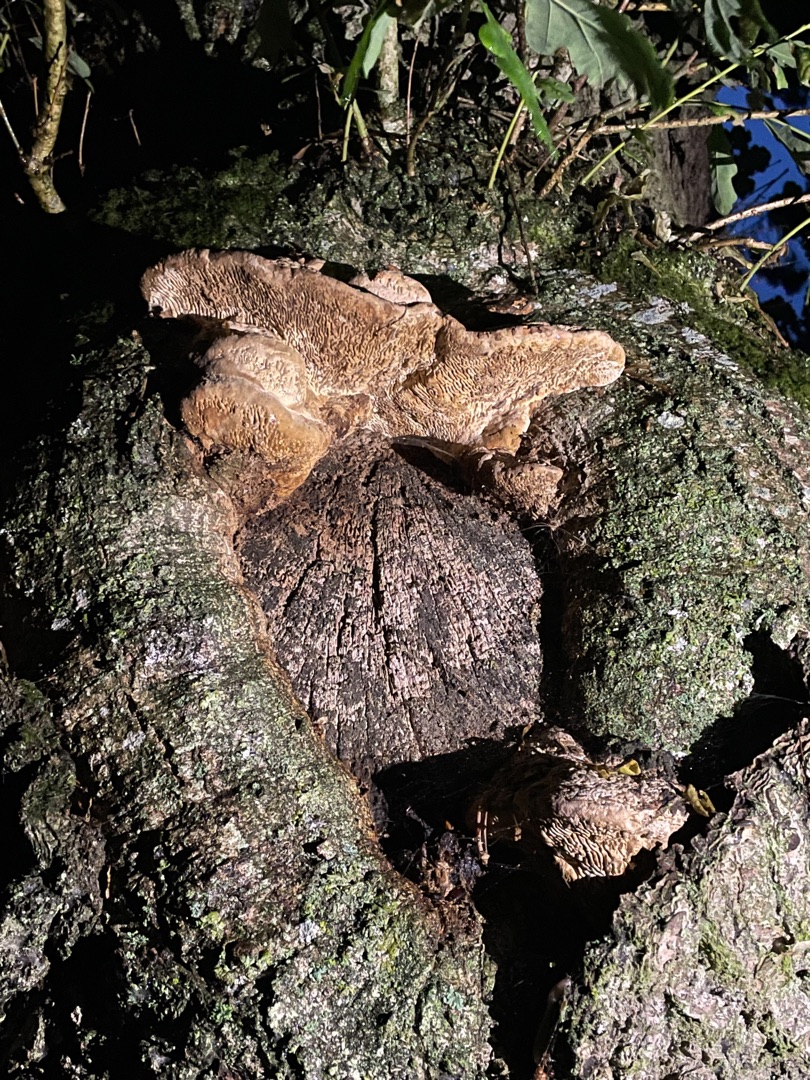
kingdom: Fungi
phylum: Basidiomycota
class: Agaricomycetes
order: Polyporales
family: Fomitopsidaceae
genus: Daedalea
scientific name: Daedalea quercina
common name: Ege-labyrintsvamp
